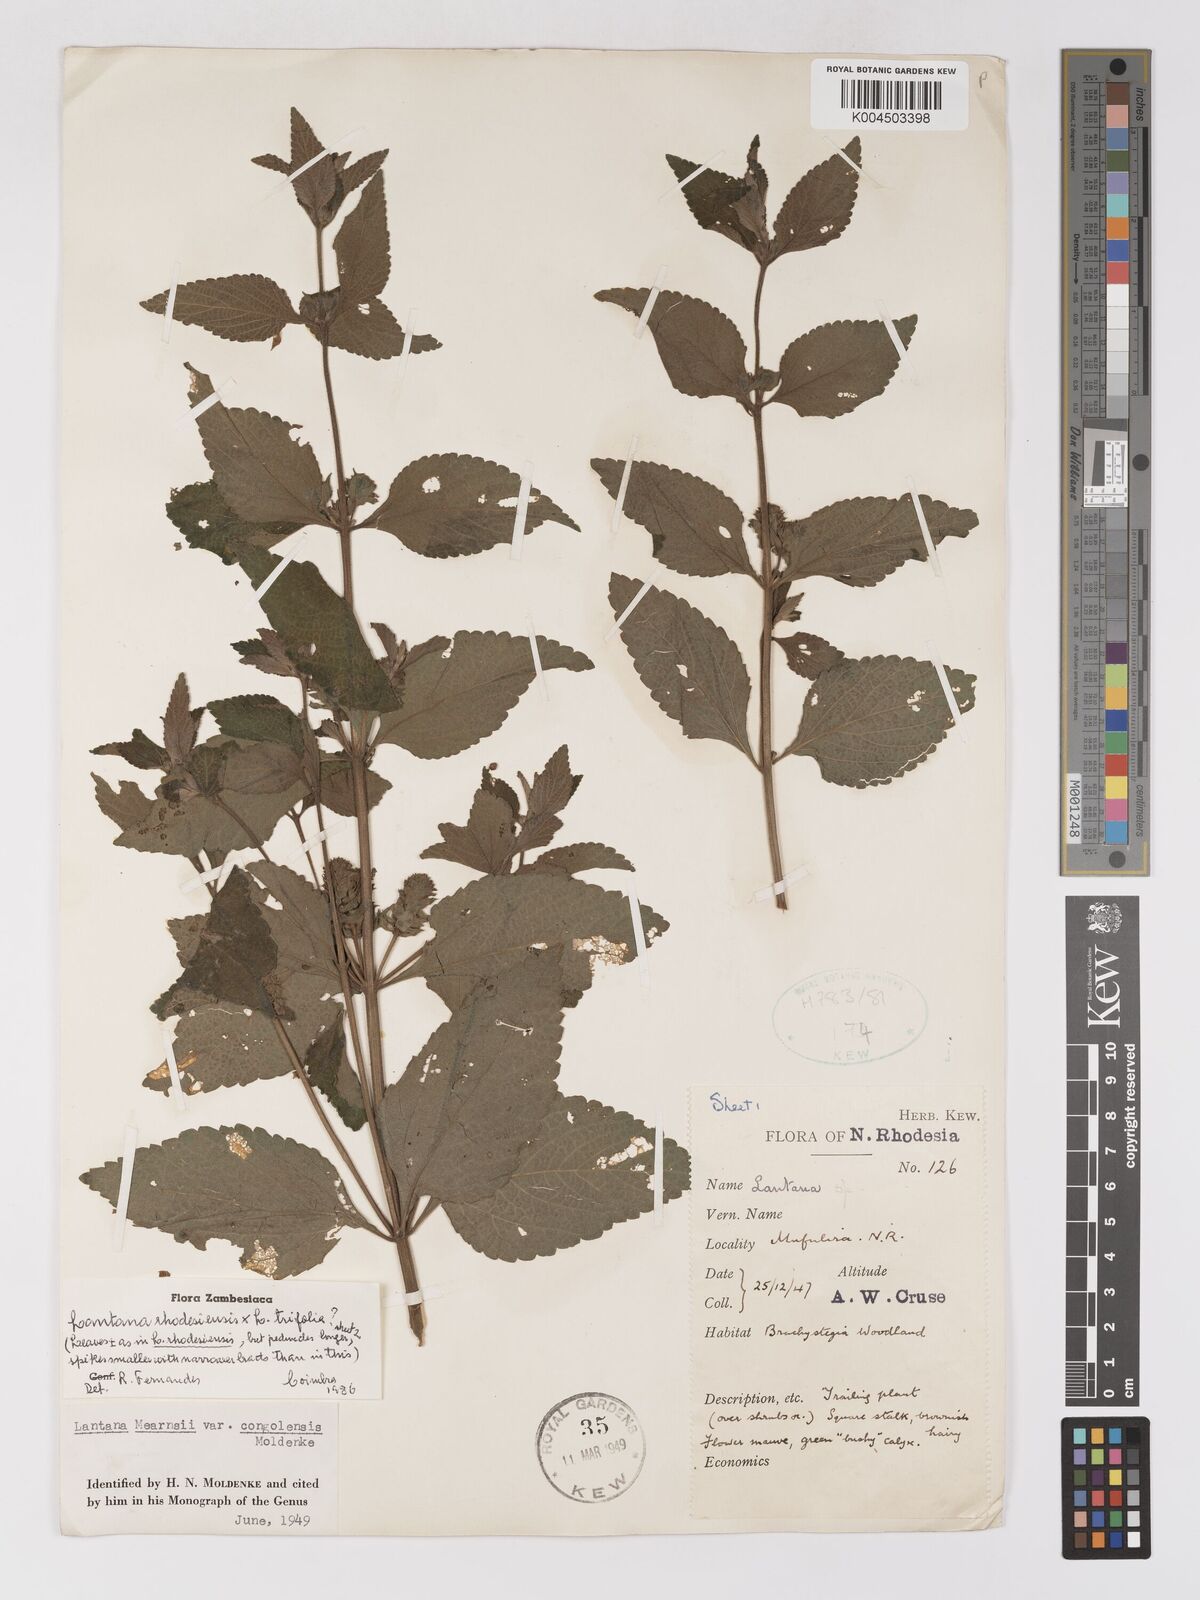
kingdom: Plantae
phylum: Tracheophyta
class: Magnoliopsida
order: Lamiales
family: Verbenaceae
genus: Lantana
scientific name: Lantana ukambensis
